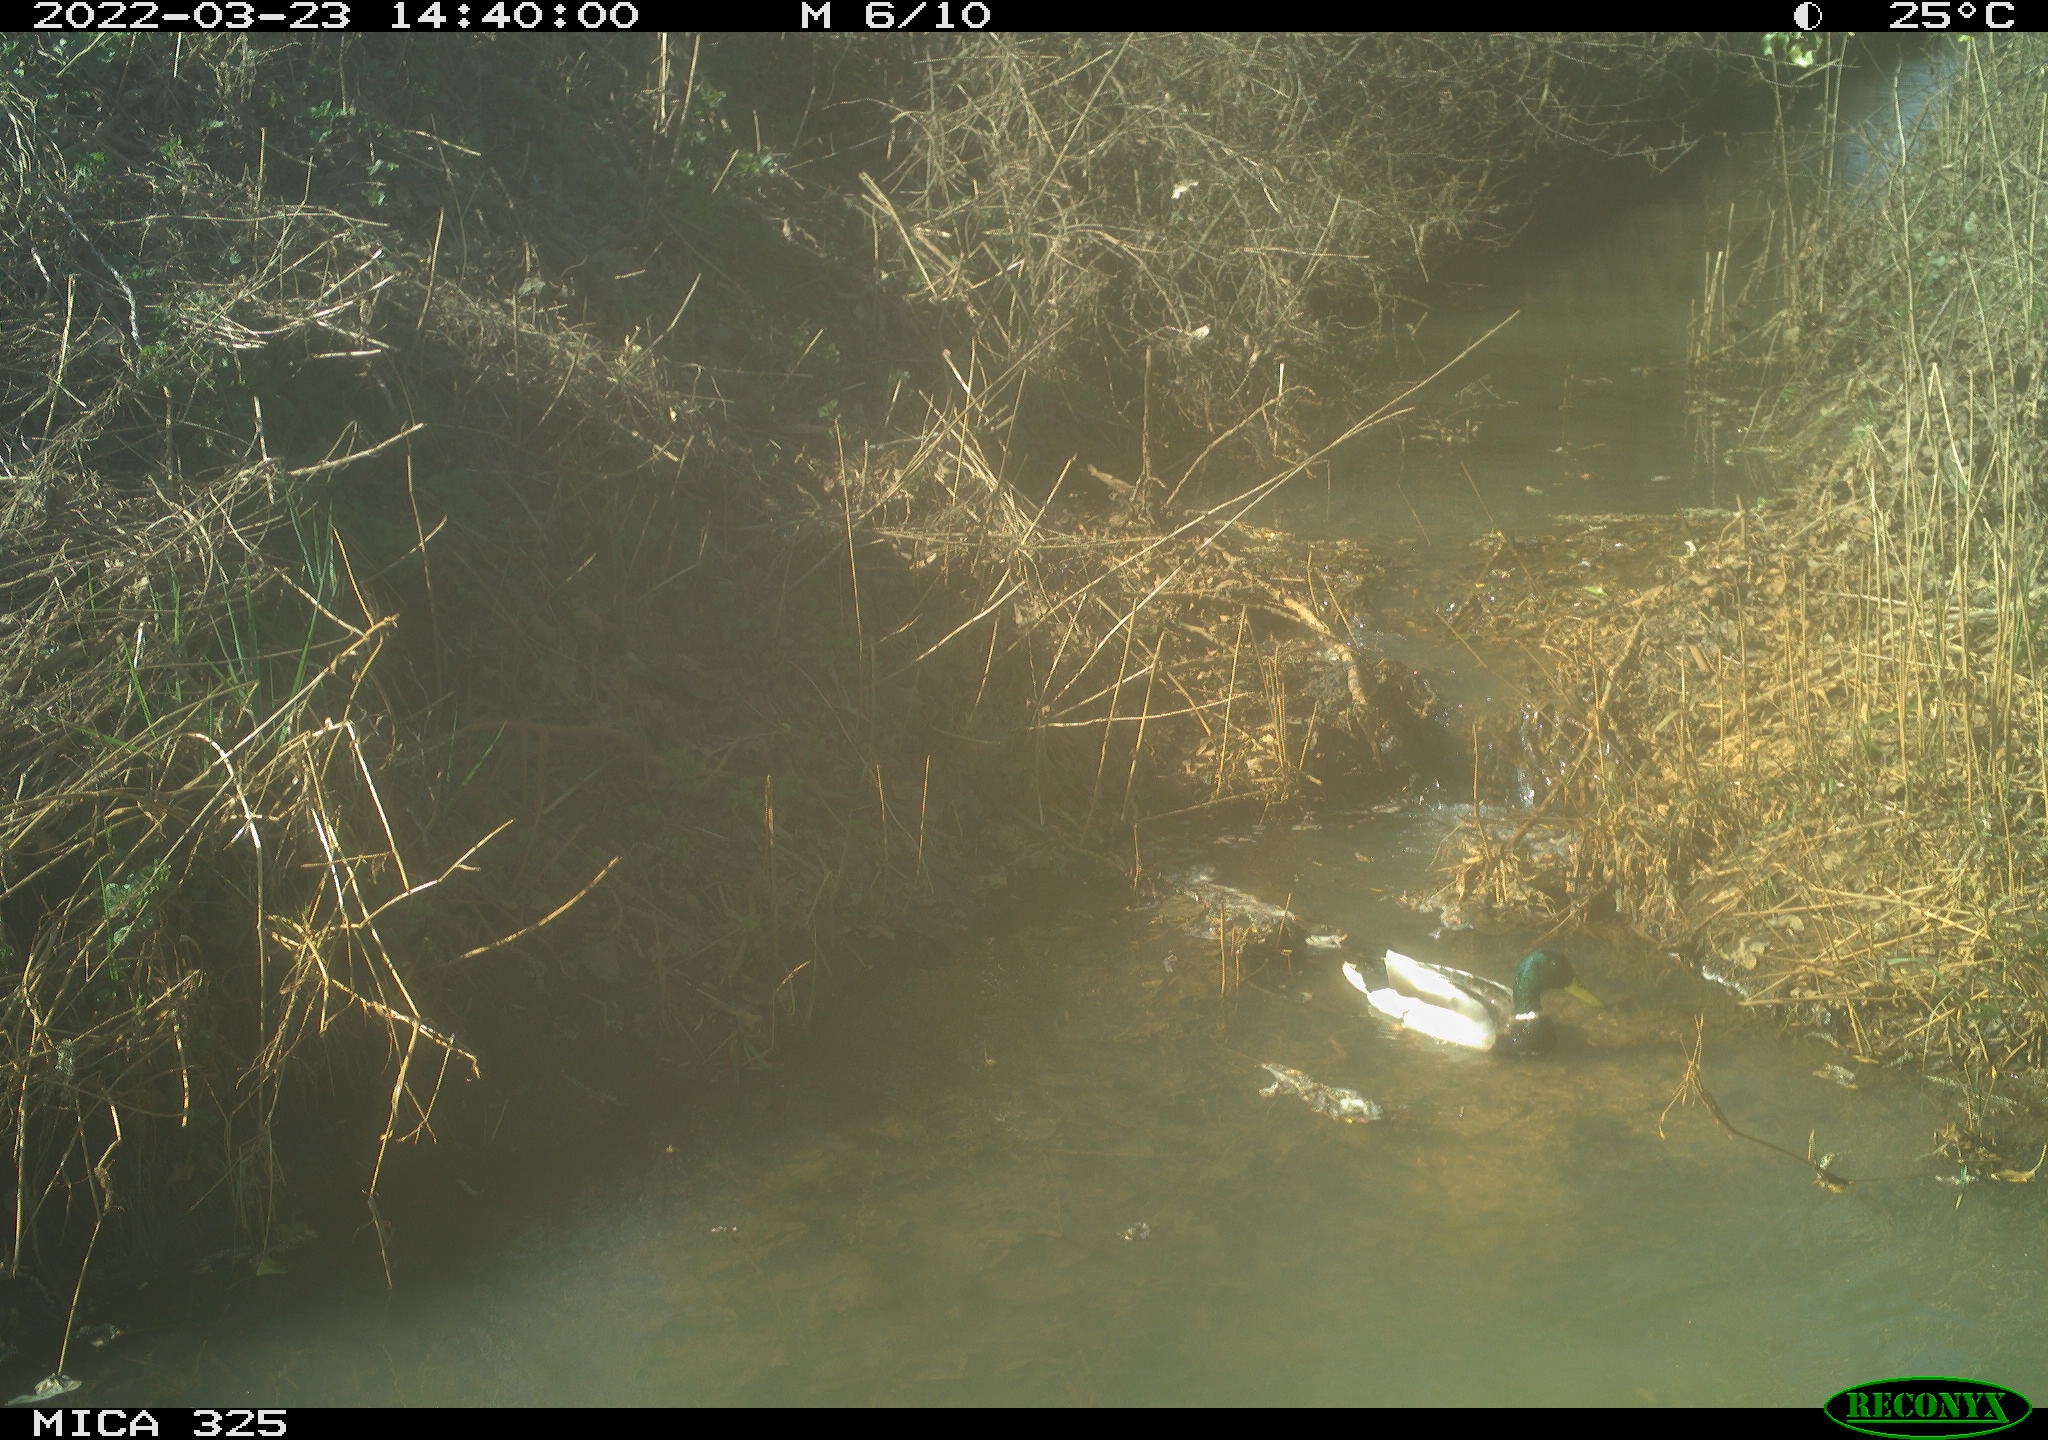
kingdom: Animalia
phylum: Chordata
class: Aves
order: Anseriformes
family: Anatidae
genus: Anas
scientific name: Anas platyrhynchos
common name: Mallard
